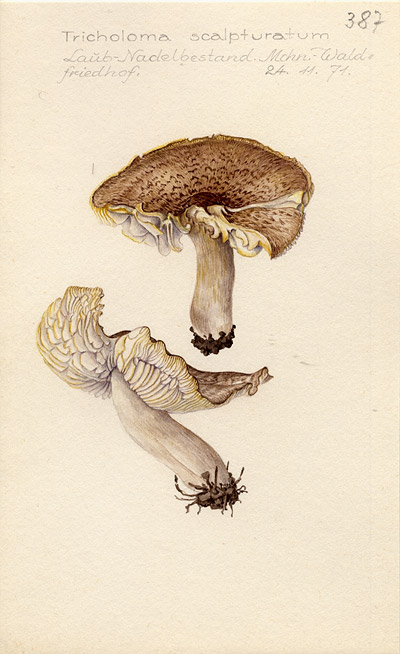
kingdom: Fungi
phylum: Basidiomycota
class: Agaricomycetes
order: Agaricales
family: Tricholomataceae
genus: Tricholoma
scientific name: Tricholoma scalpturatum
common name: Yellowing knight
